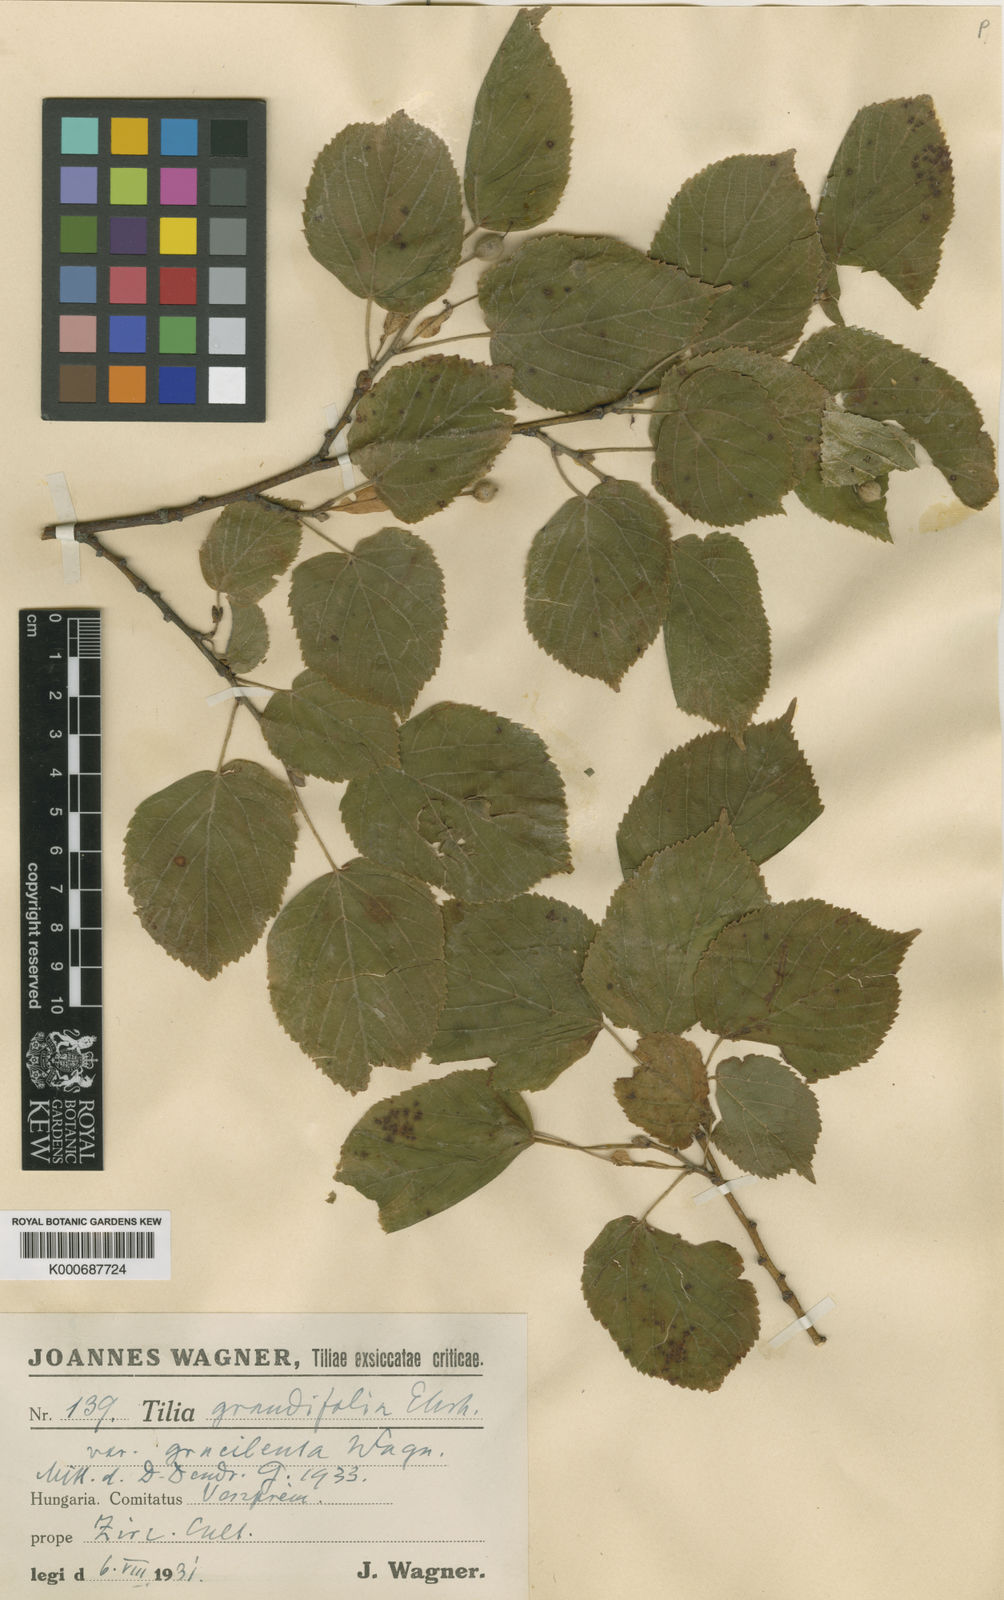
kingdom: Plantae
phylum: Tracheophyta
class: Magnoliopsida
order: Malvales
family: Malvaceae
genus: Tilia
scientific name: Tilia platyphyllos
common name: Large-leaved lime
